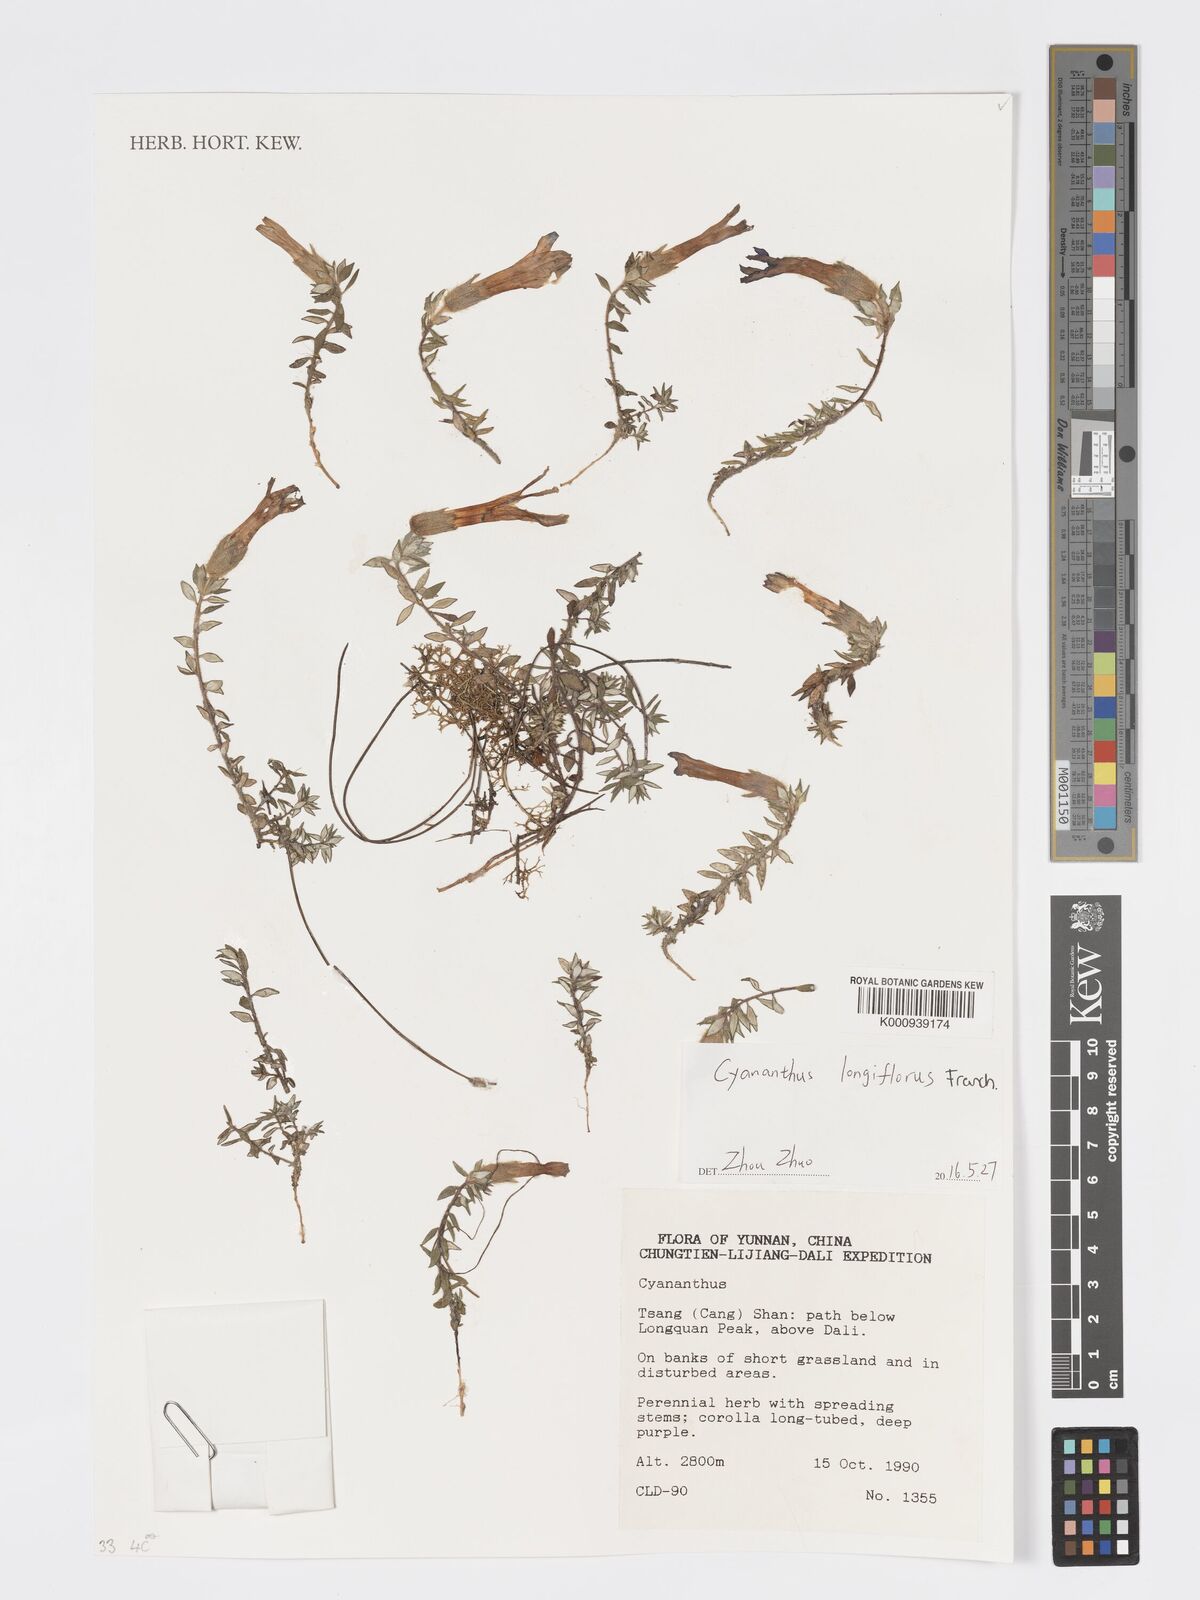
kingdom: Plantae
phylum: Tracheophyta
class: Magnoliopsida
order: Asterales
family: Campanulaceae
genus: Cyananthus
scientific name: Cyananthus longiflorus
